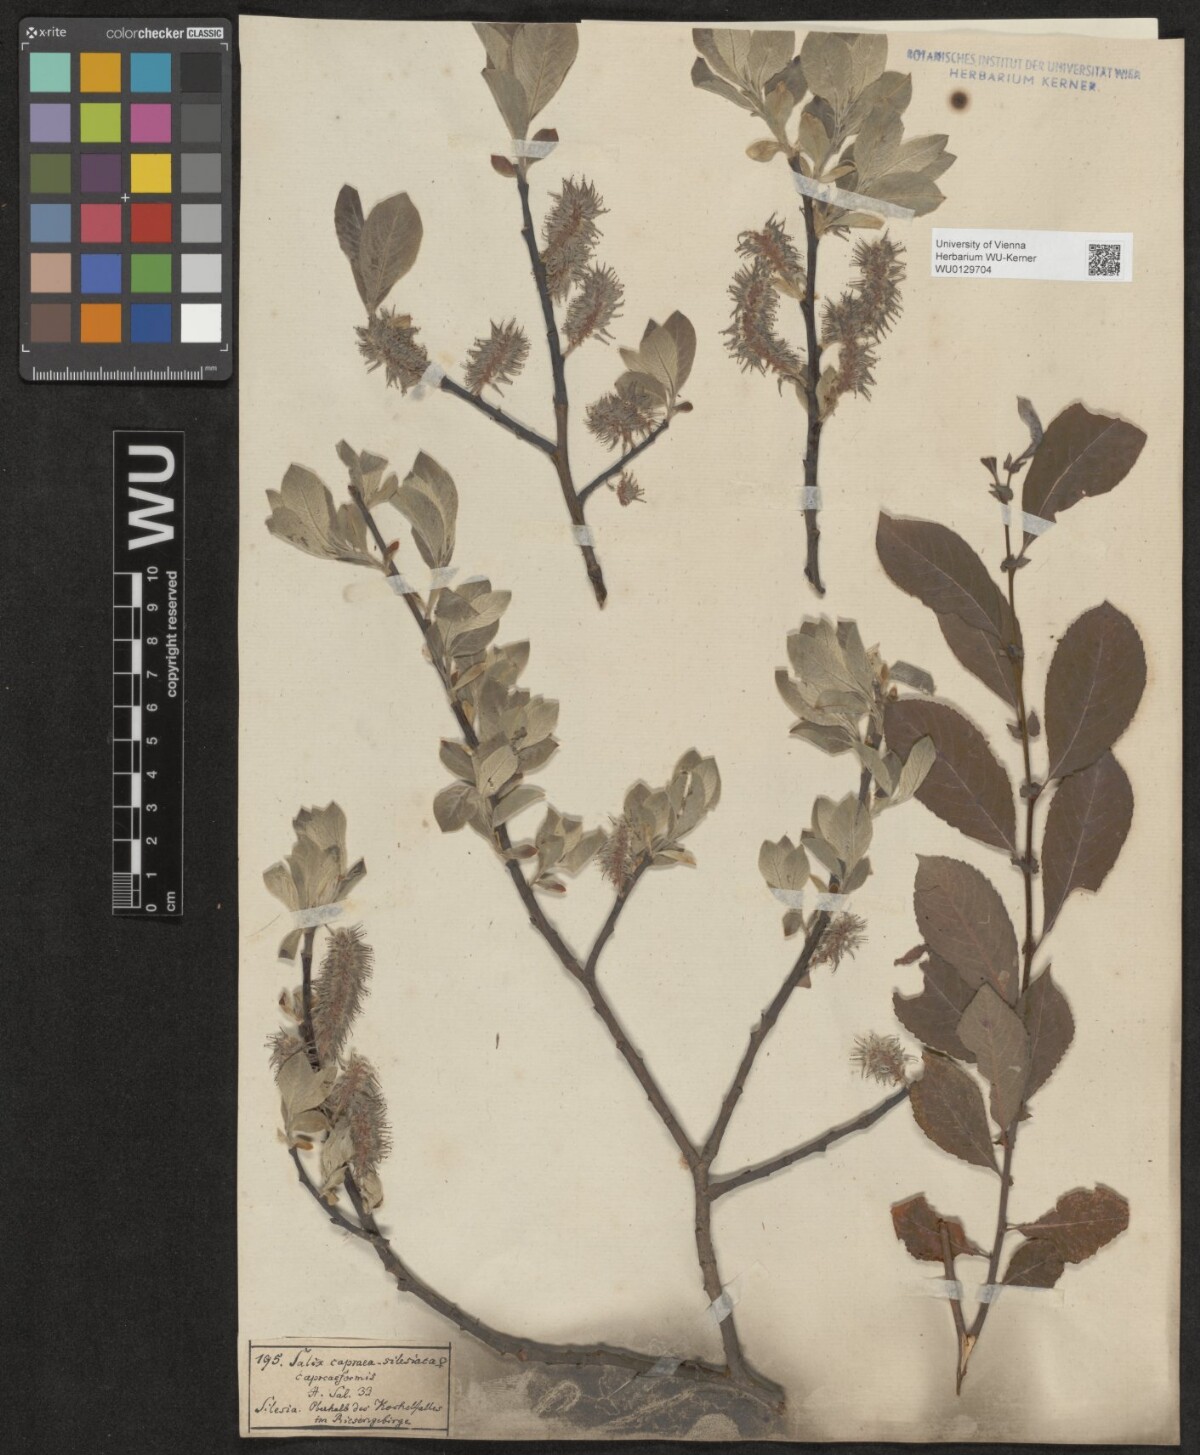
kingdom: Plantae
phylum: Tracheophyta
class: Magnoliopsida
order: Malpighiales
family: Salicaceae
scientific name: Salicaceae
